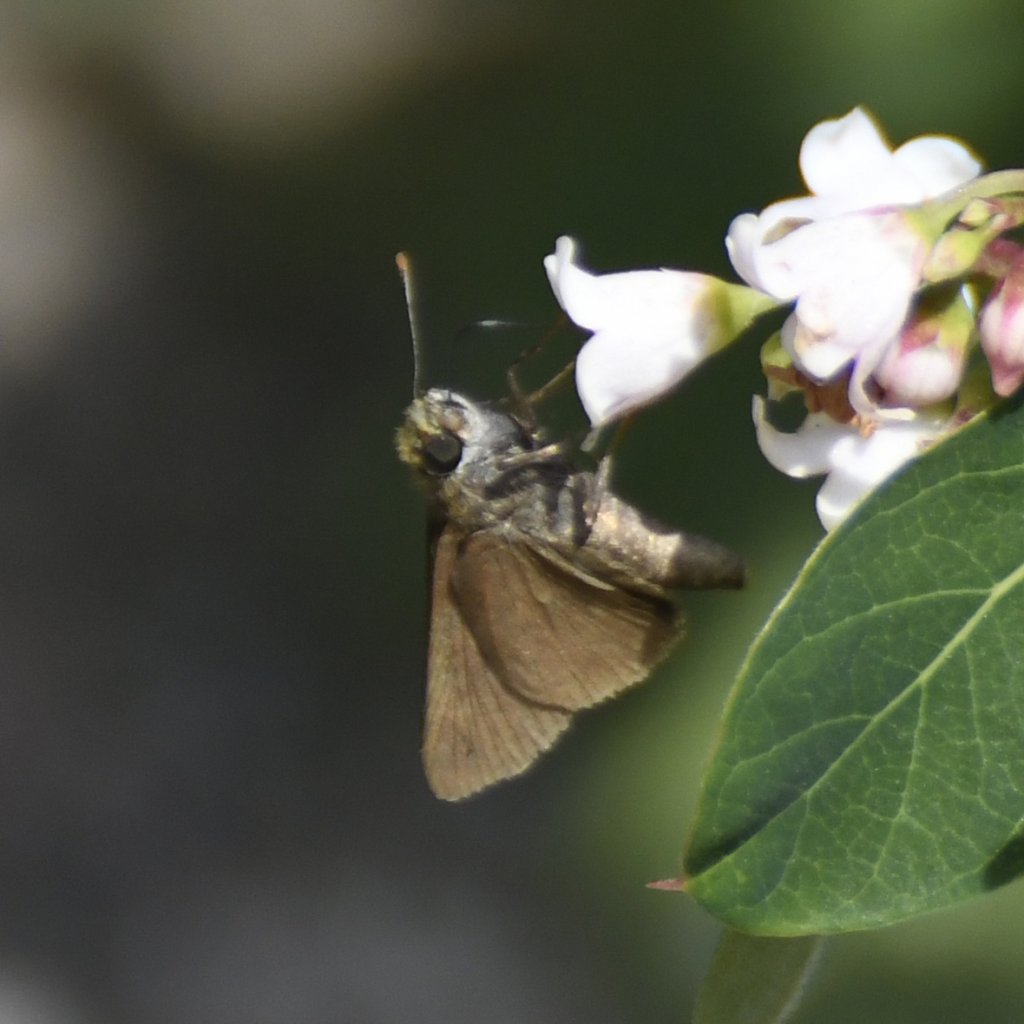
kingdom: Animalia
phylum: Arthropoda
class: Insecta
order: Lepidoptera
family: Hesperiidae
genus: Euphyes
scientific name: Euphyes vestris
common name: Dun Skipper
